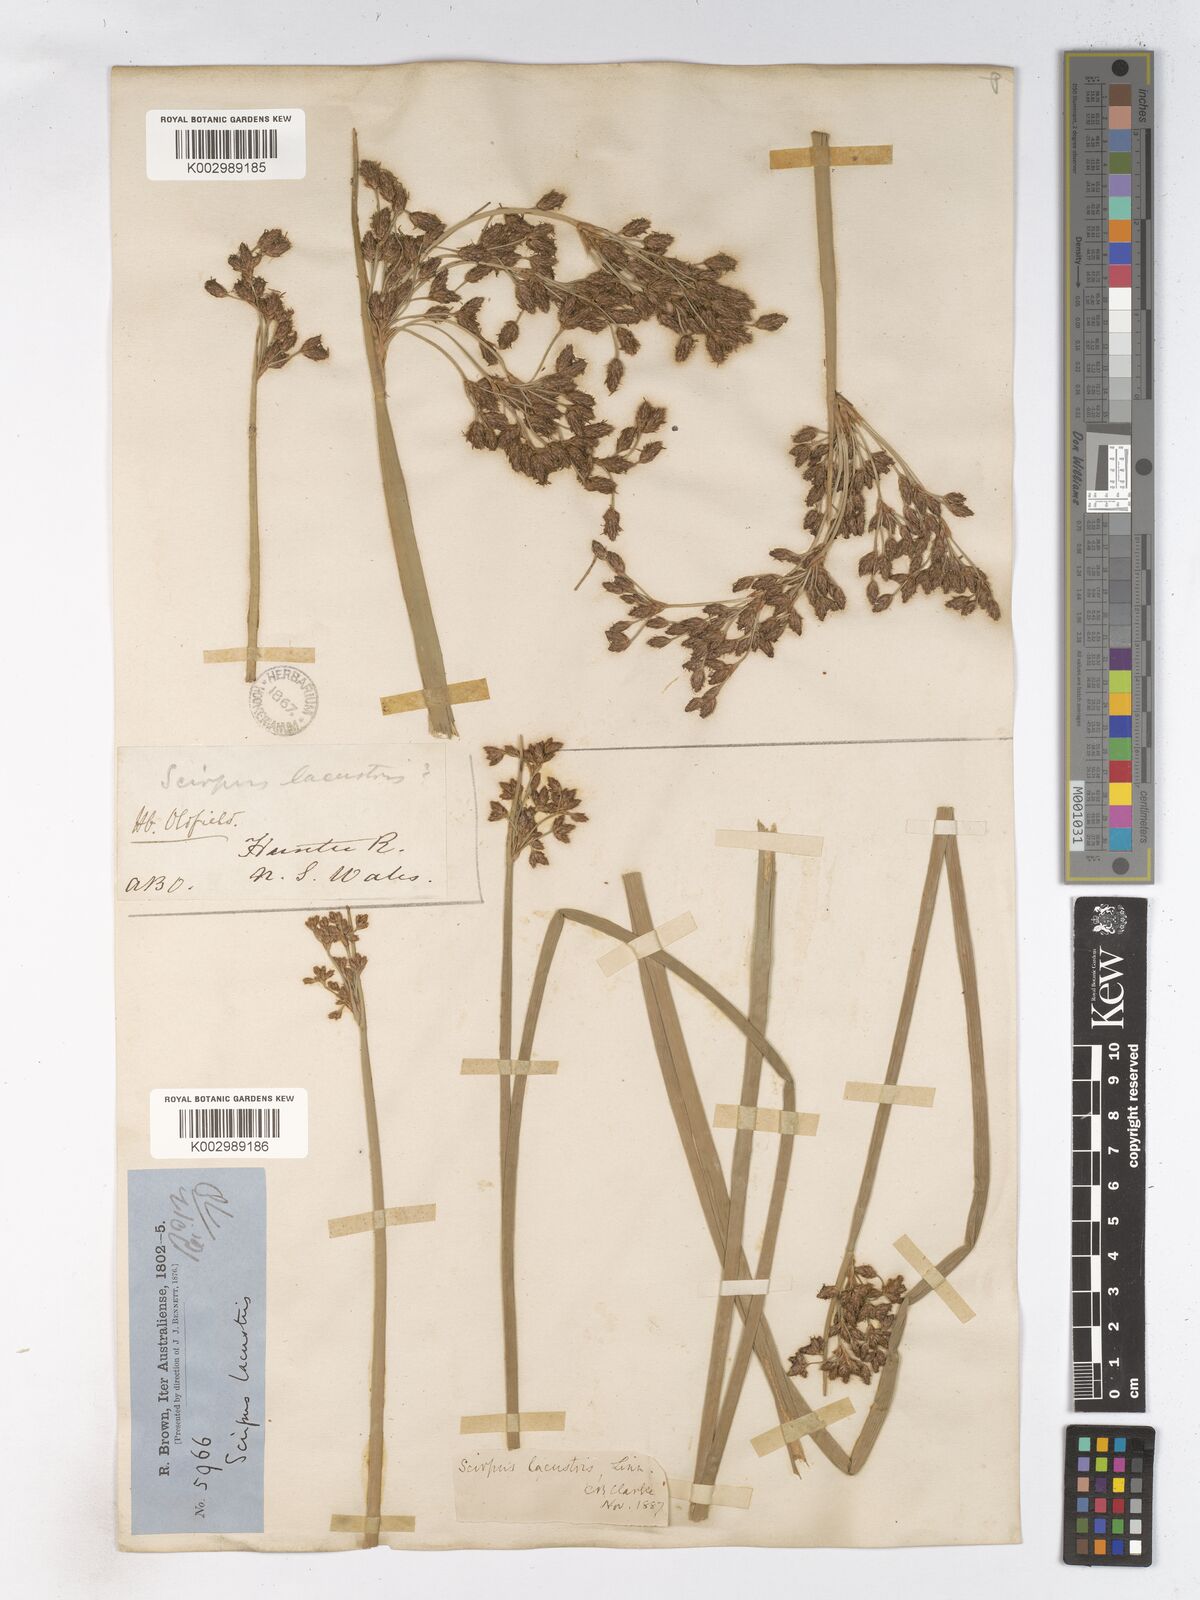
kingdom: Plantae
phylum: Tracheophyta
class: Liliopsida
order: Poales
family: Cyperaceae
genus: Schoenoplectus
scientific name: Schoenoplectus lacustris
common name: Common club-rush
